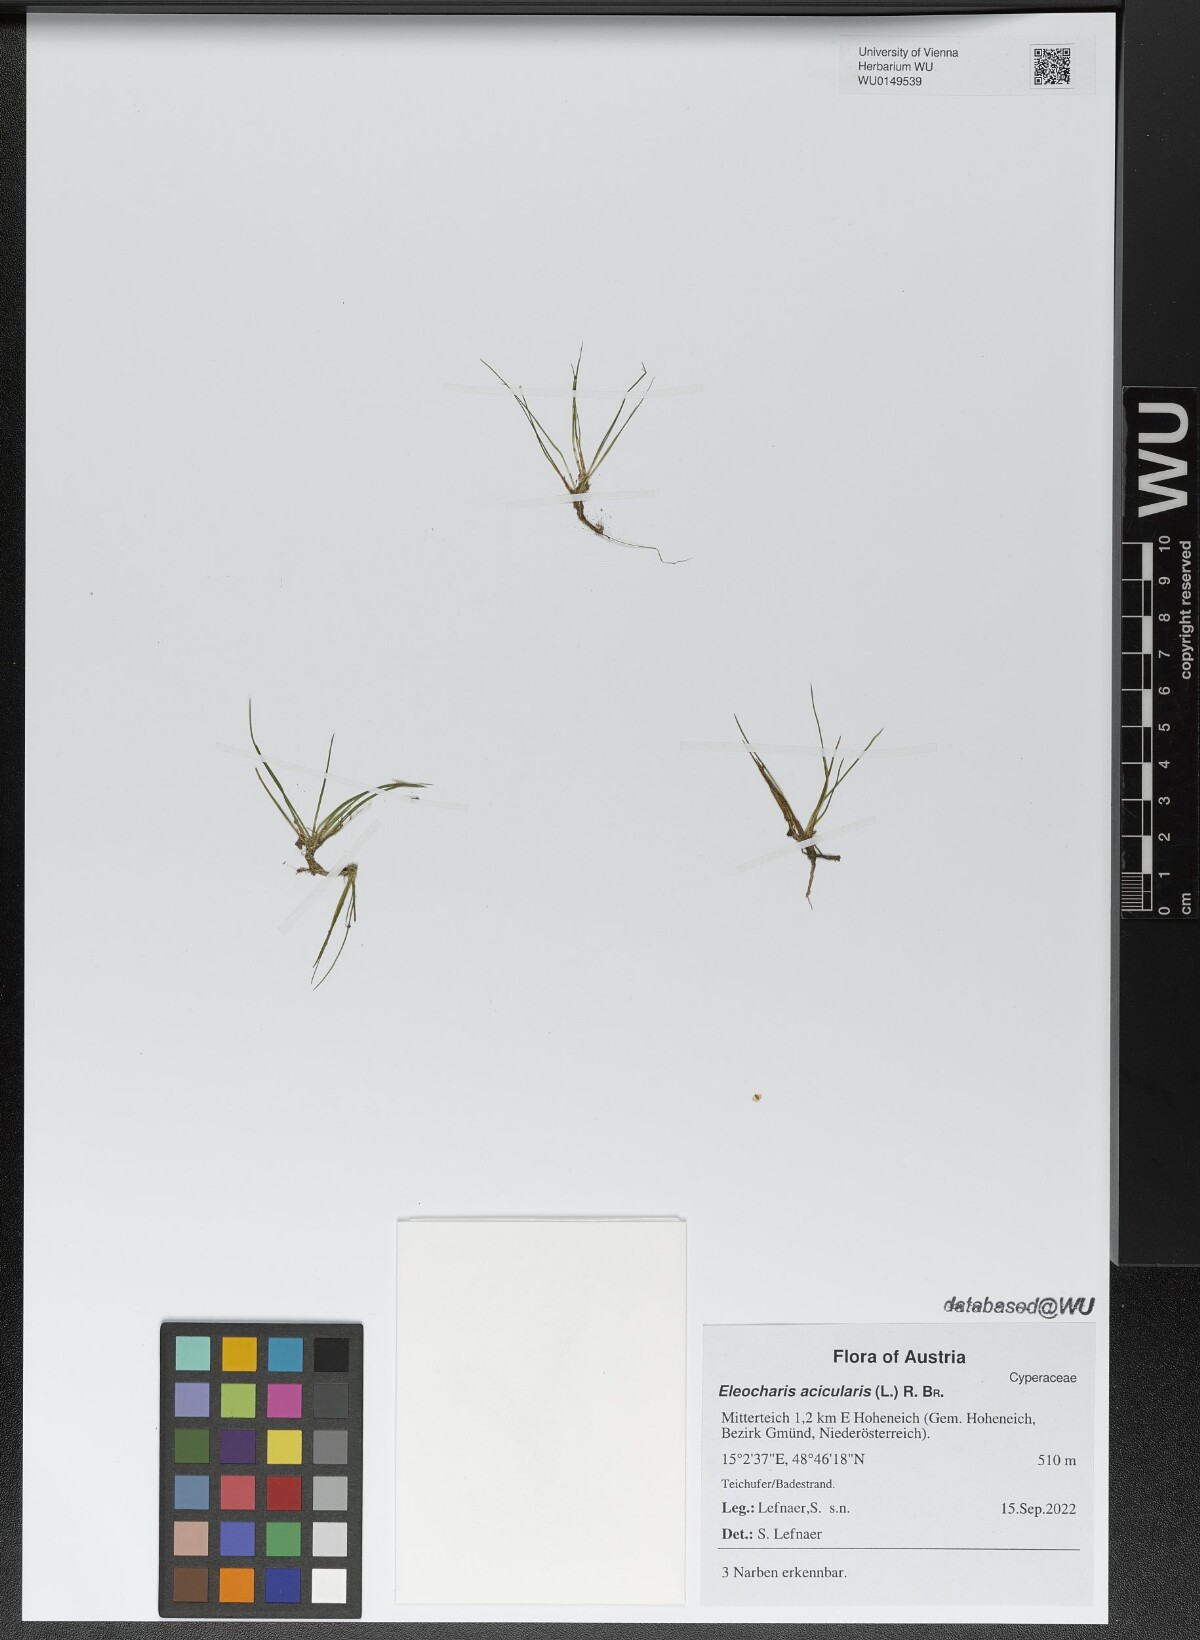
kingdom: Plantae
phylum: Tracheophyta
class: Liliopsida
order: Poales
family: Cyperaceae
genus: Eleocharis
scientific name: Eleocharis acicularis
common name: Needle spike-rush
